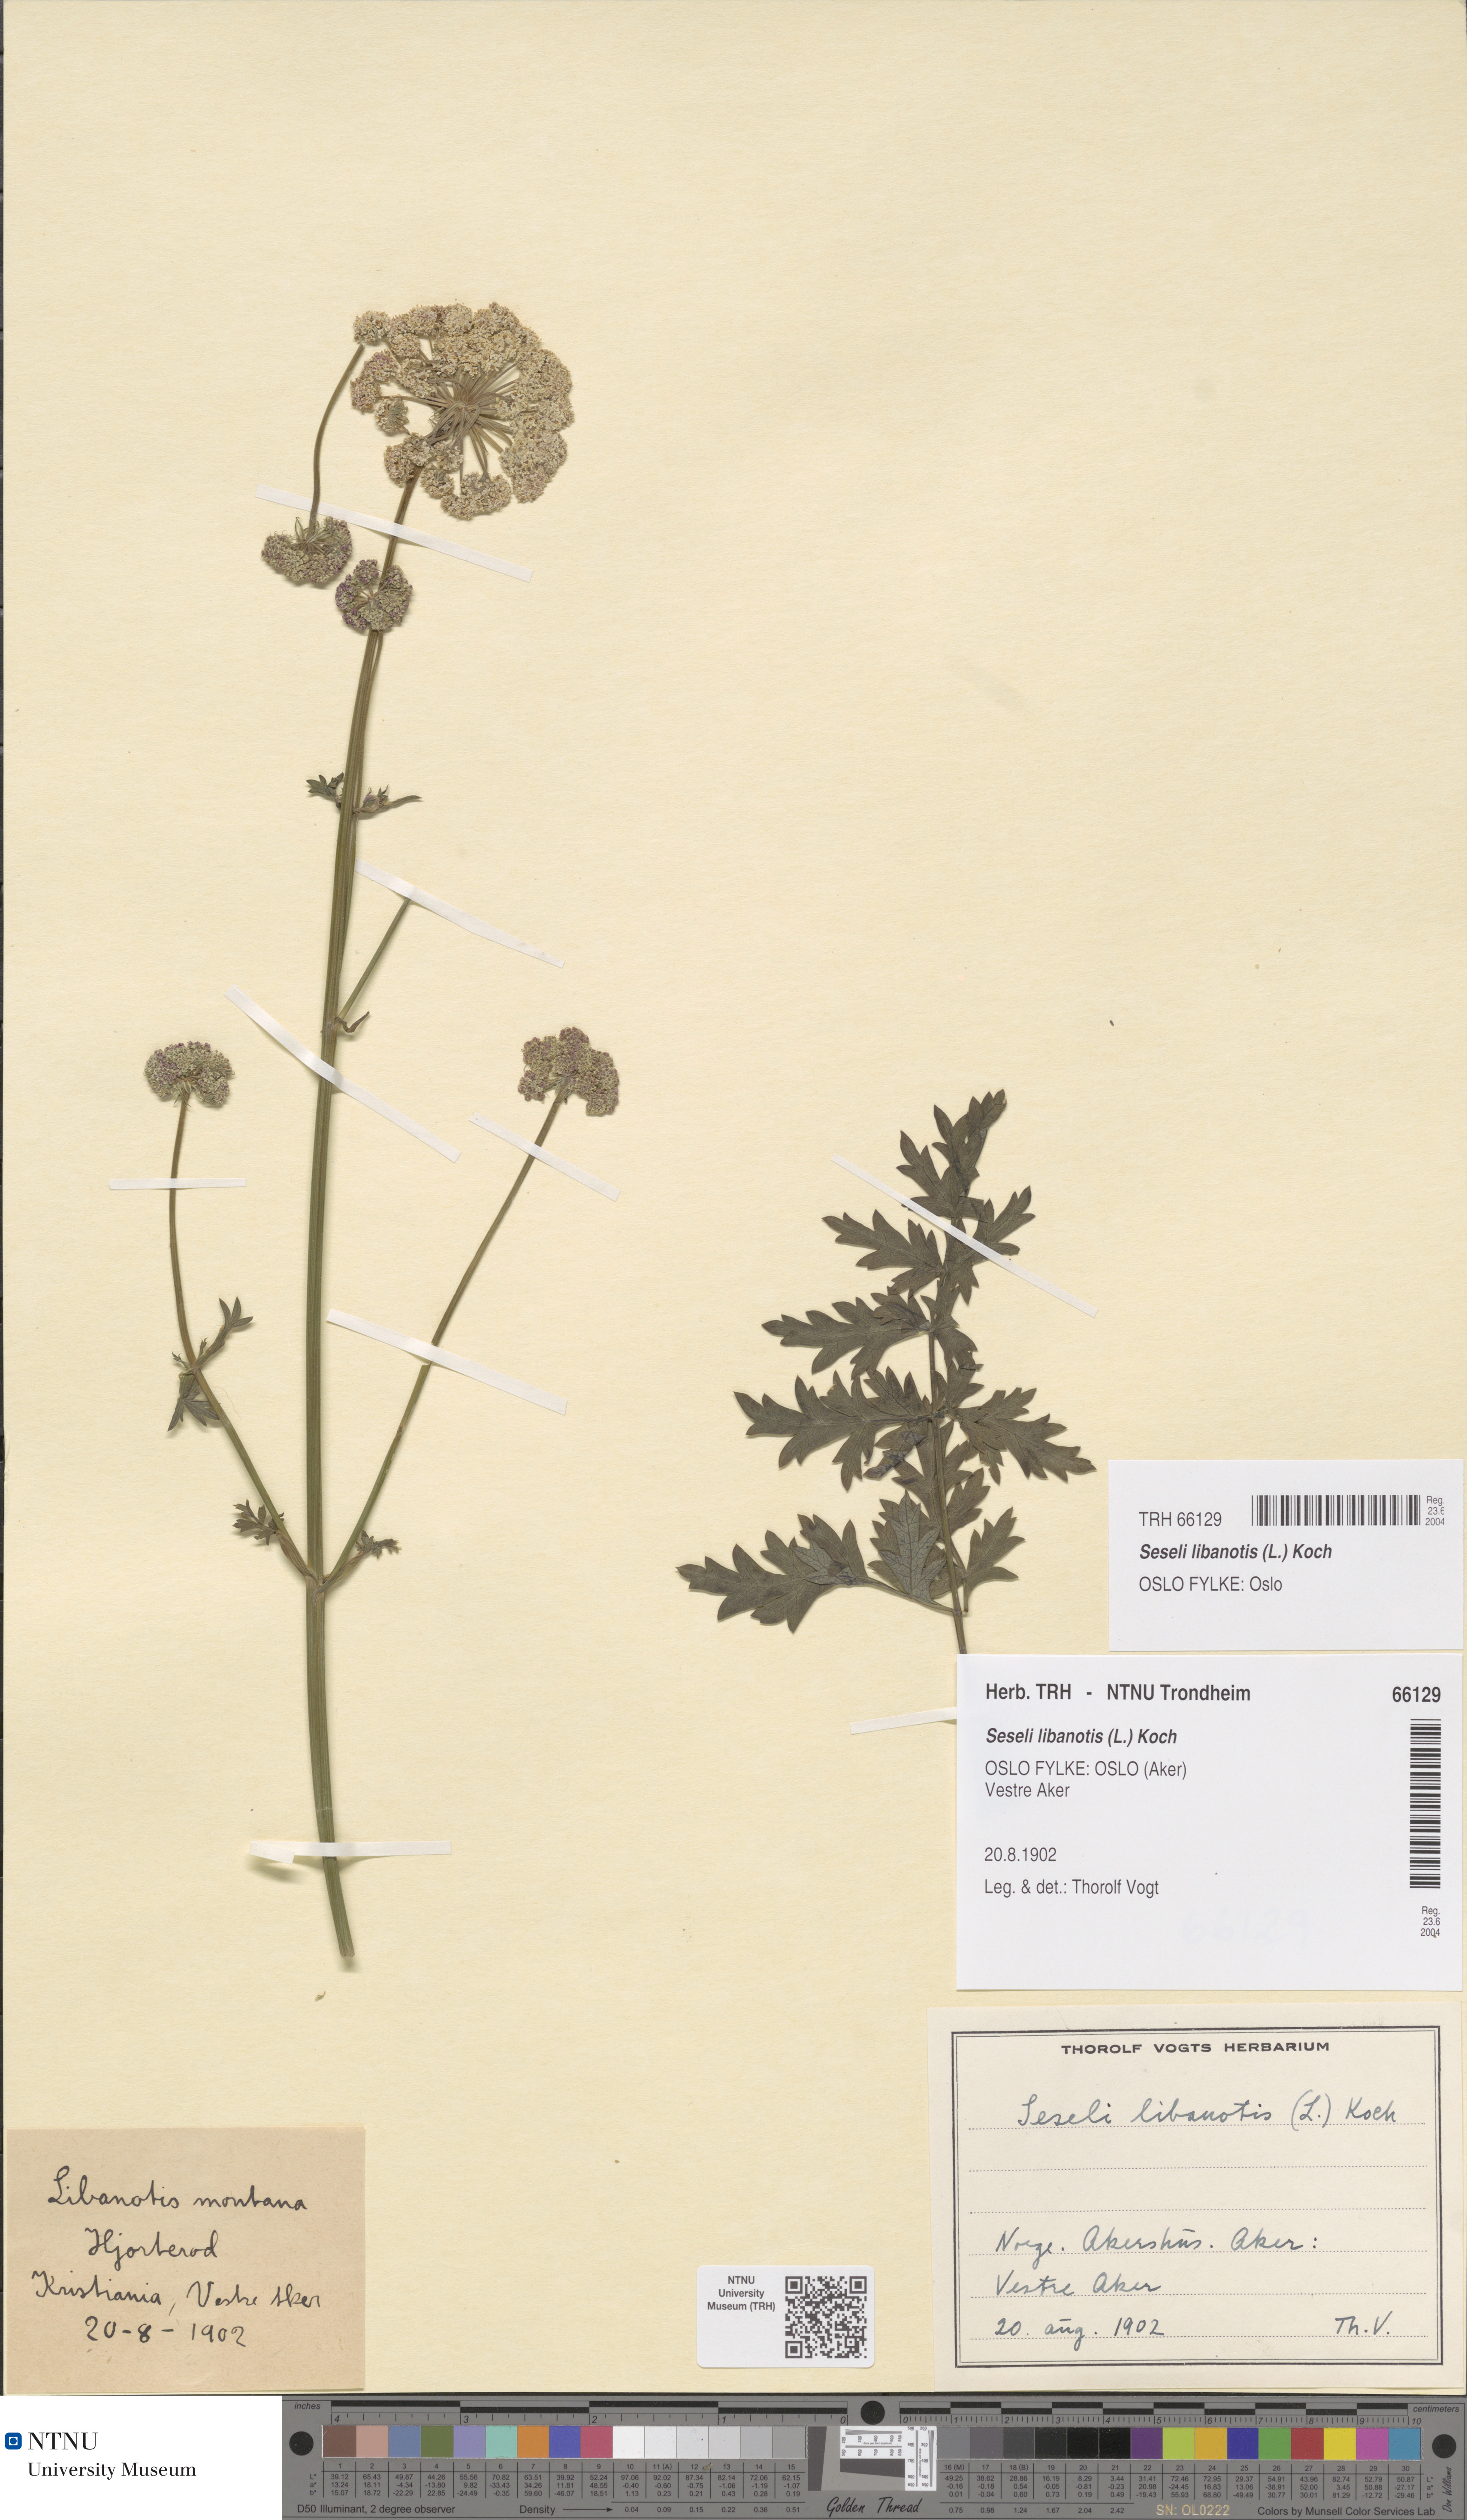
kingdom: Plantae
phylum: Tracheophyta
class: Magnoliopsida
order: Apiales
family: Apiaceae
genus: Seseli
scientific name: Seseli libanotis
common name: Mooncarrot
